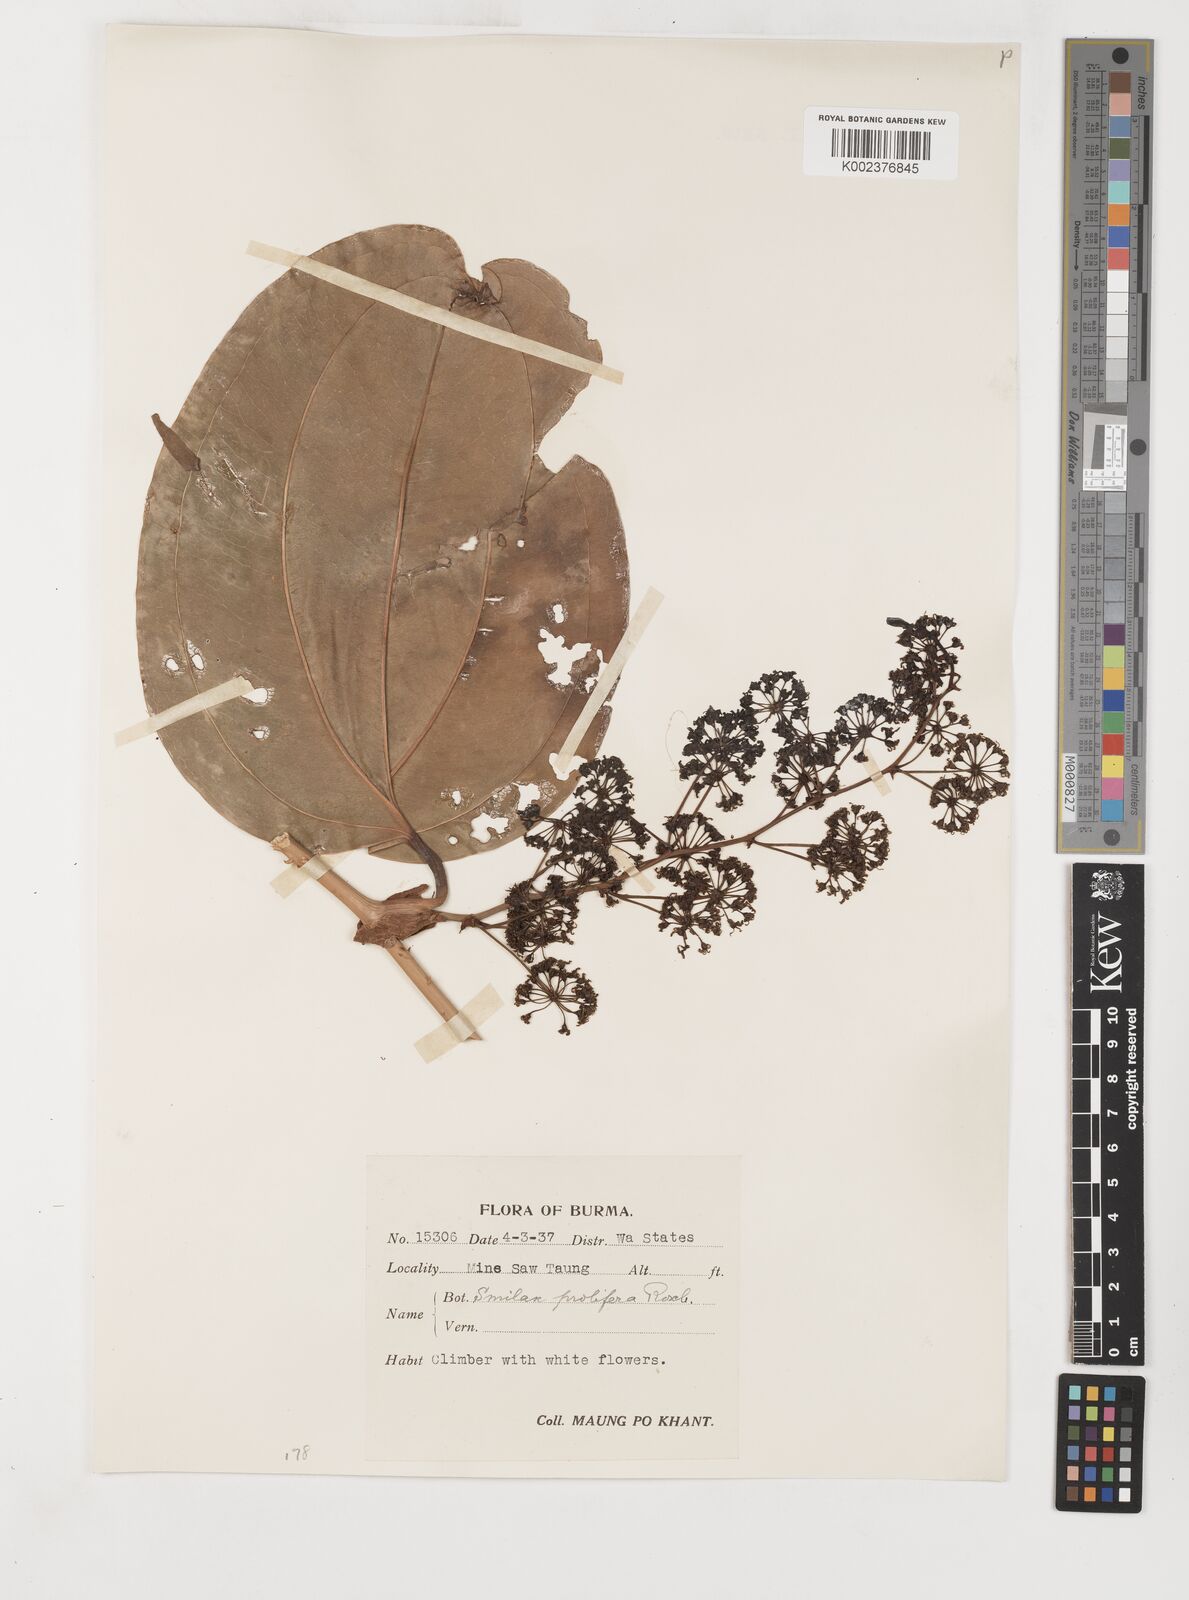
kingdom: Plantae
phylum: Tracheophyta
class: Liliopsida
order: Liliales
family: Smilacaceae
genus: Smilax
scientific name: Smilax prolifera
